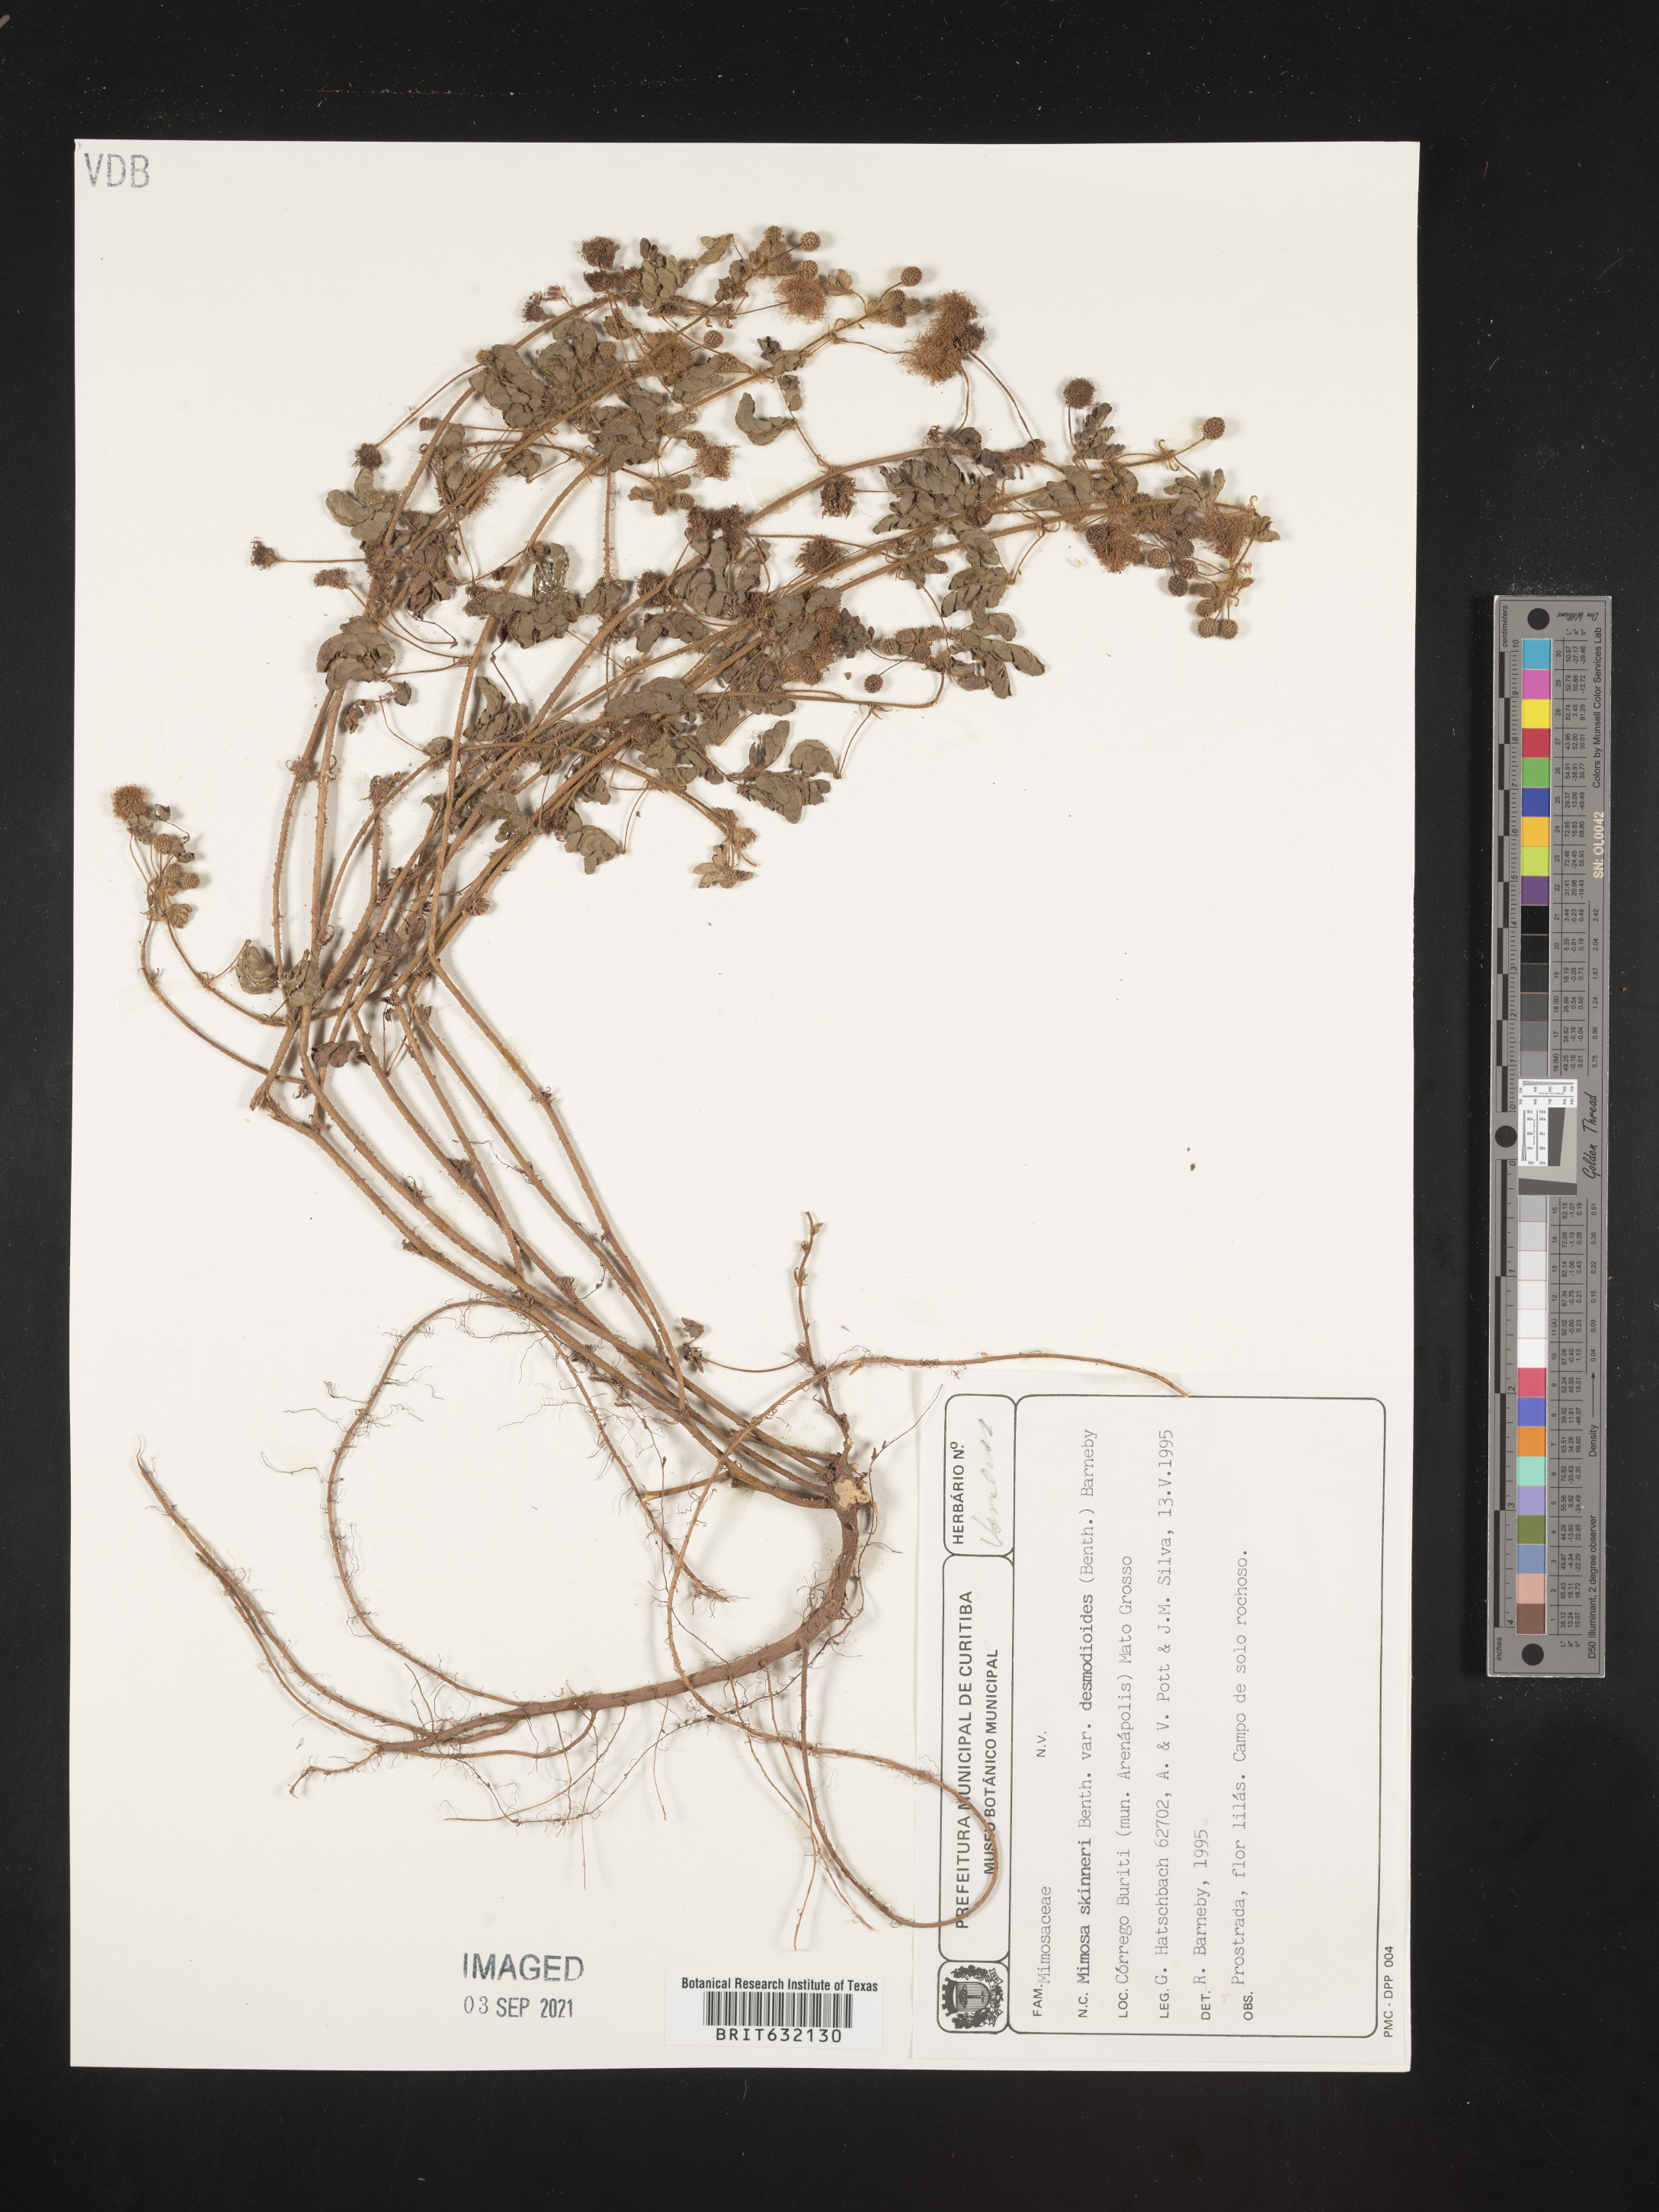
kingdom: Plantae
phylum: Tracheophyta
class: Magnoliopsida
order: Fabales
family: Fabaceae
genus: Mimosa
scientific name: Mimosa
